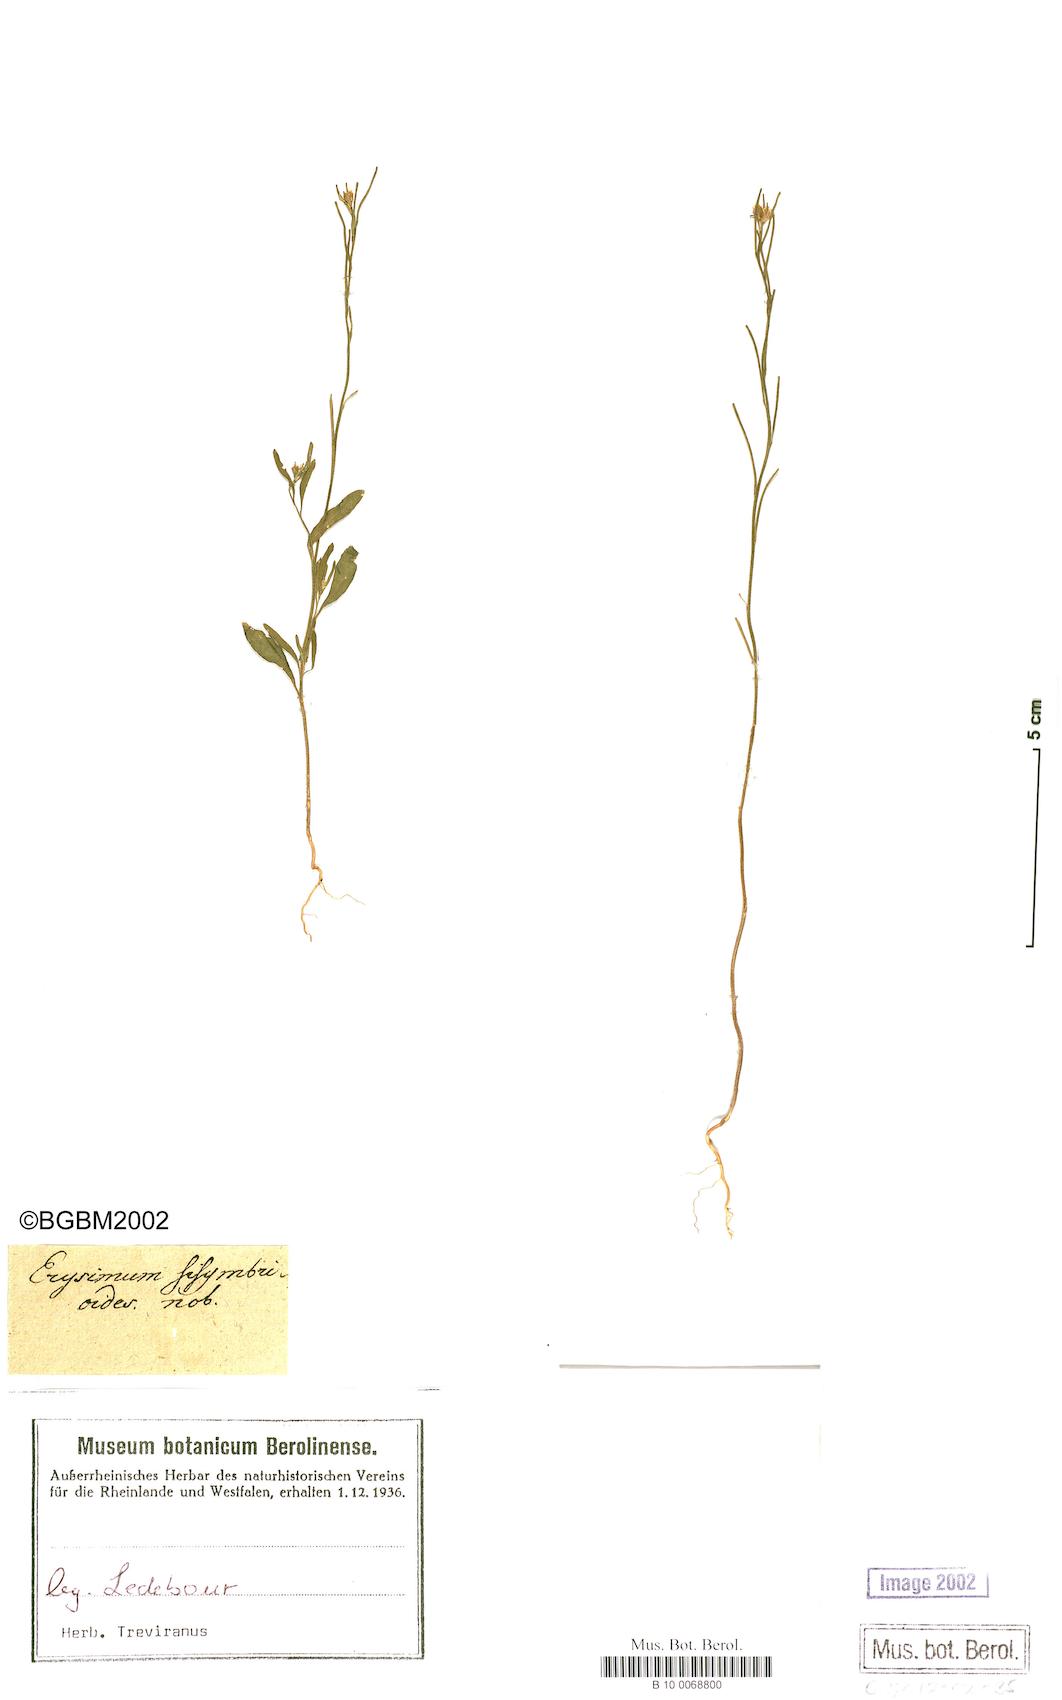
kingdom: Plantae
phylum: Tracheophyta
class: Magnoliopsida
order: Brassicales
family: Brassicaceae
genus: Erysimum
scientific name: Erysimum sisymbrioides
